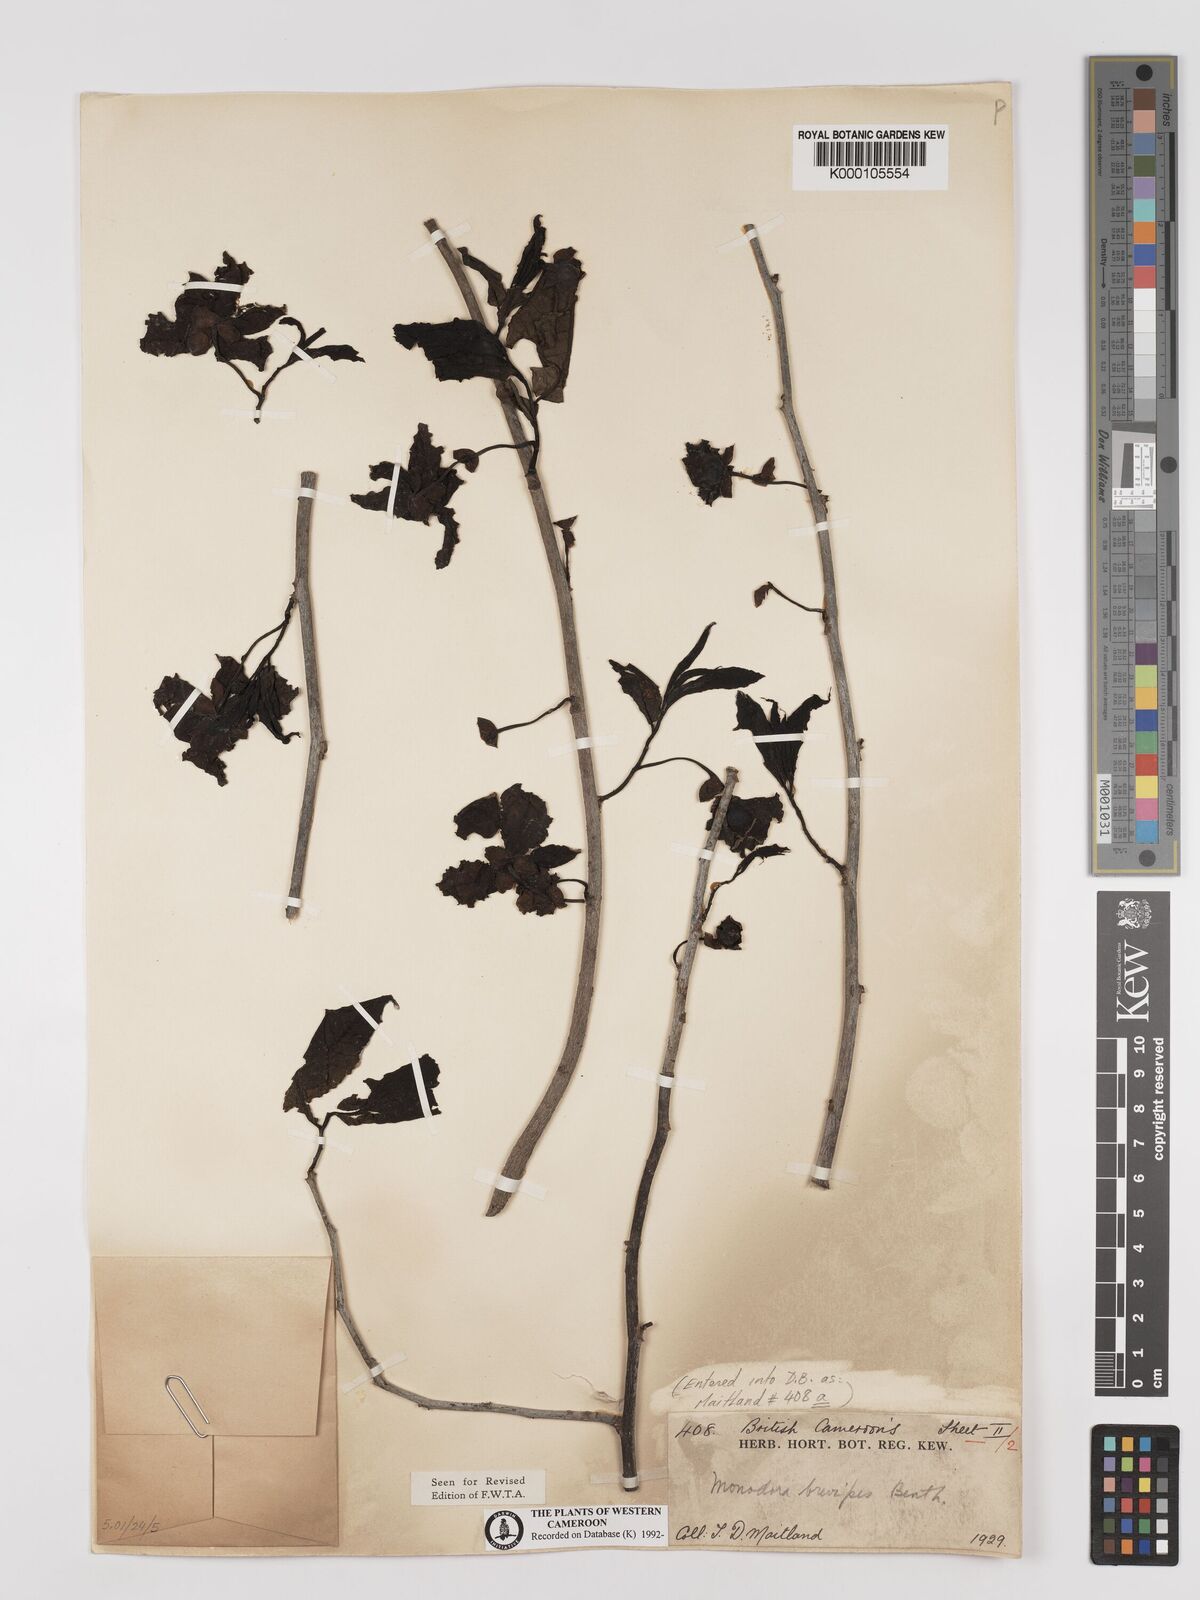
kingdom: Plantae
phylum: Tracheophyta
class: Magnoliopsida
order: Magnoliales
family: Annonaceae
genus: Monodora
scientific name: Monodora undulata
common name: Yellow-flower-nutmeg
